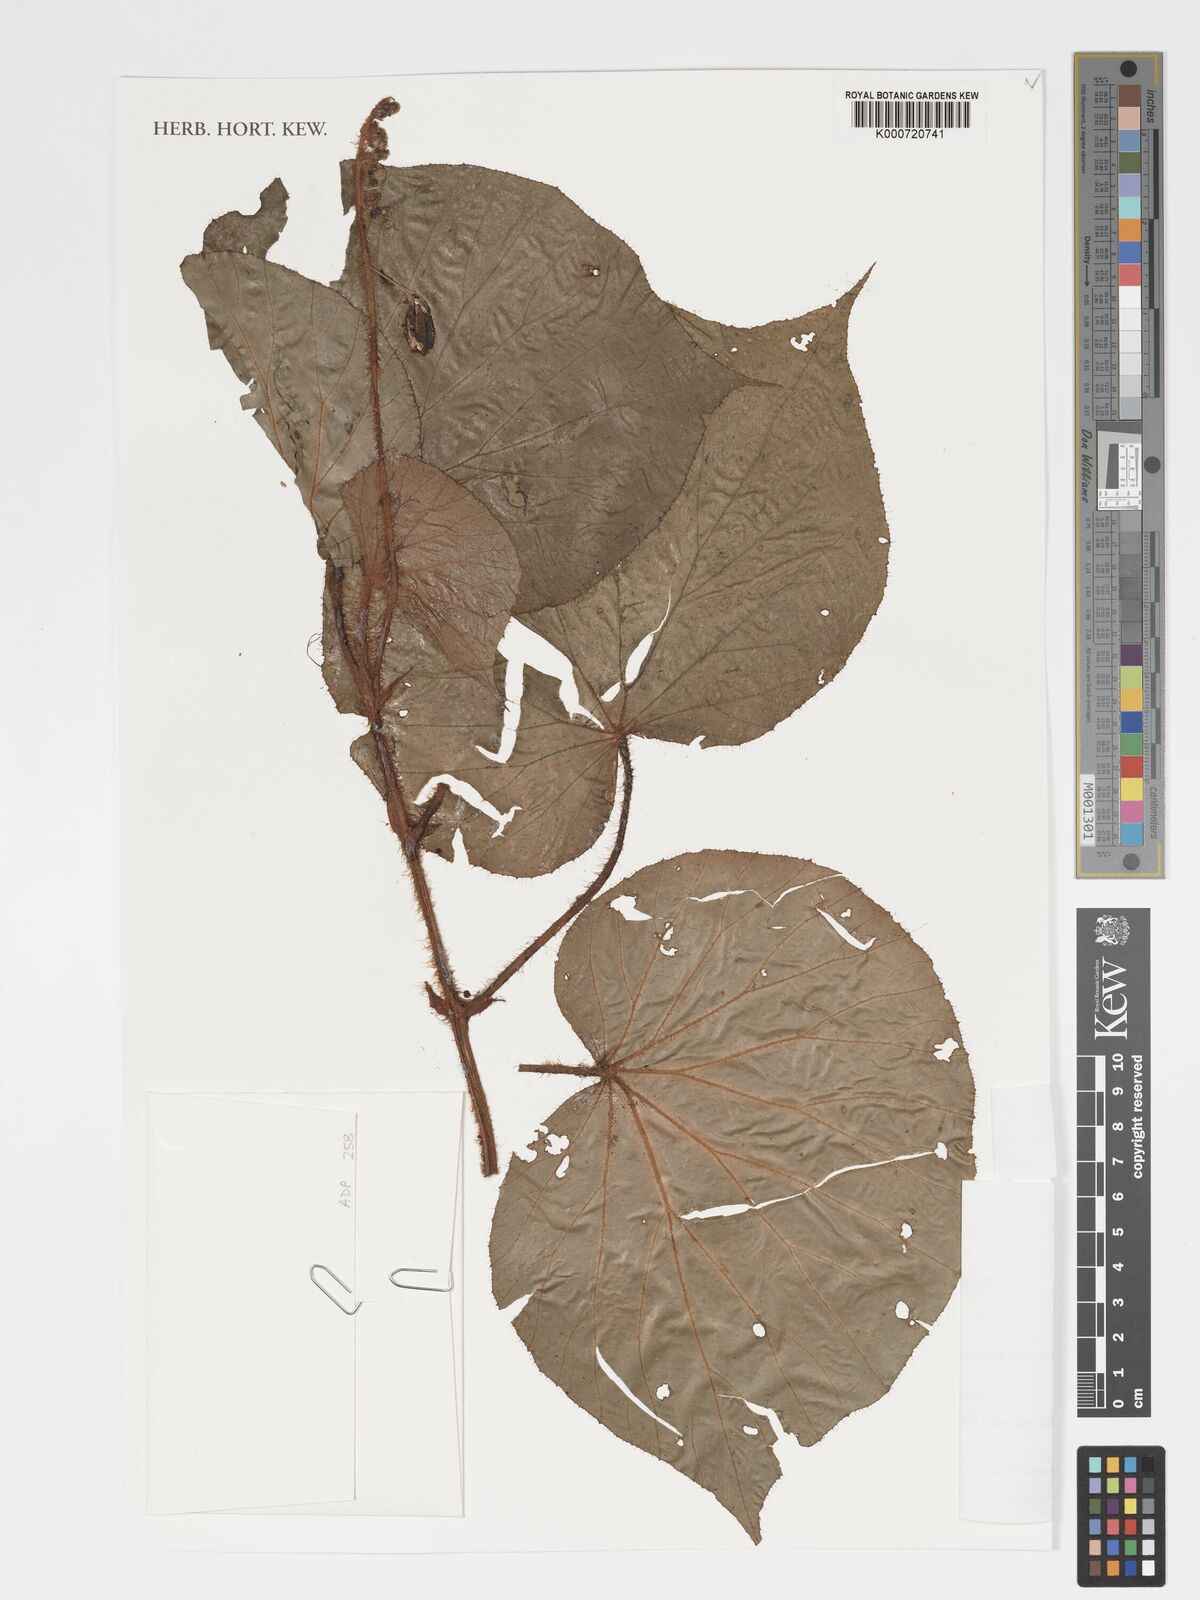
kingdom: Plantae
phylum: Tracheophyta
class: Magnoliopsida
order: Cucurbitales
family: Begoniaceae
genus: Begonia
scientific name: Begonia awongii
